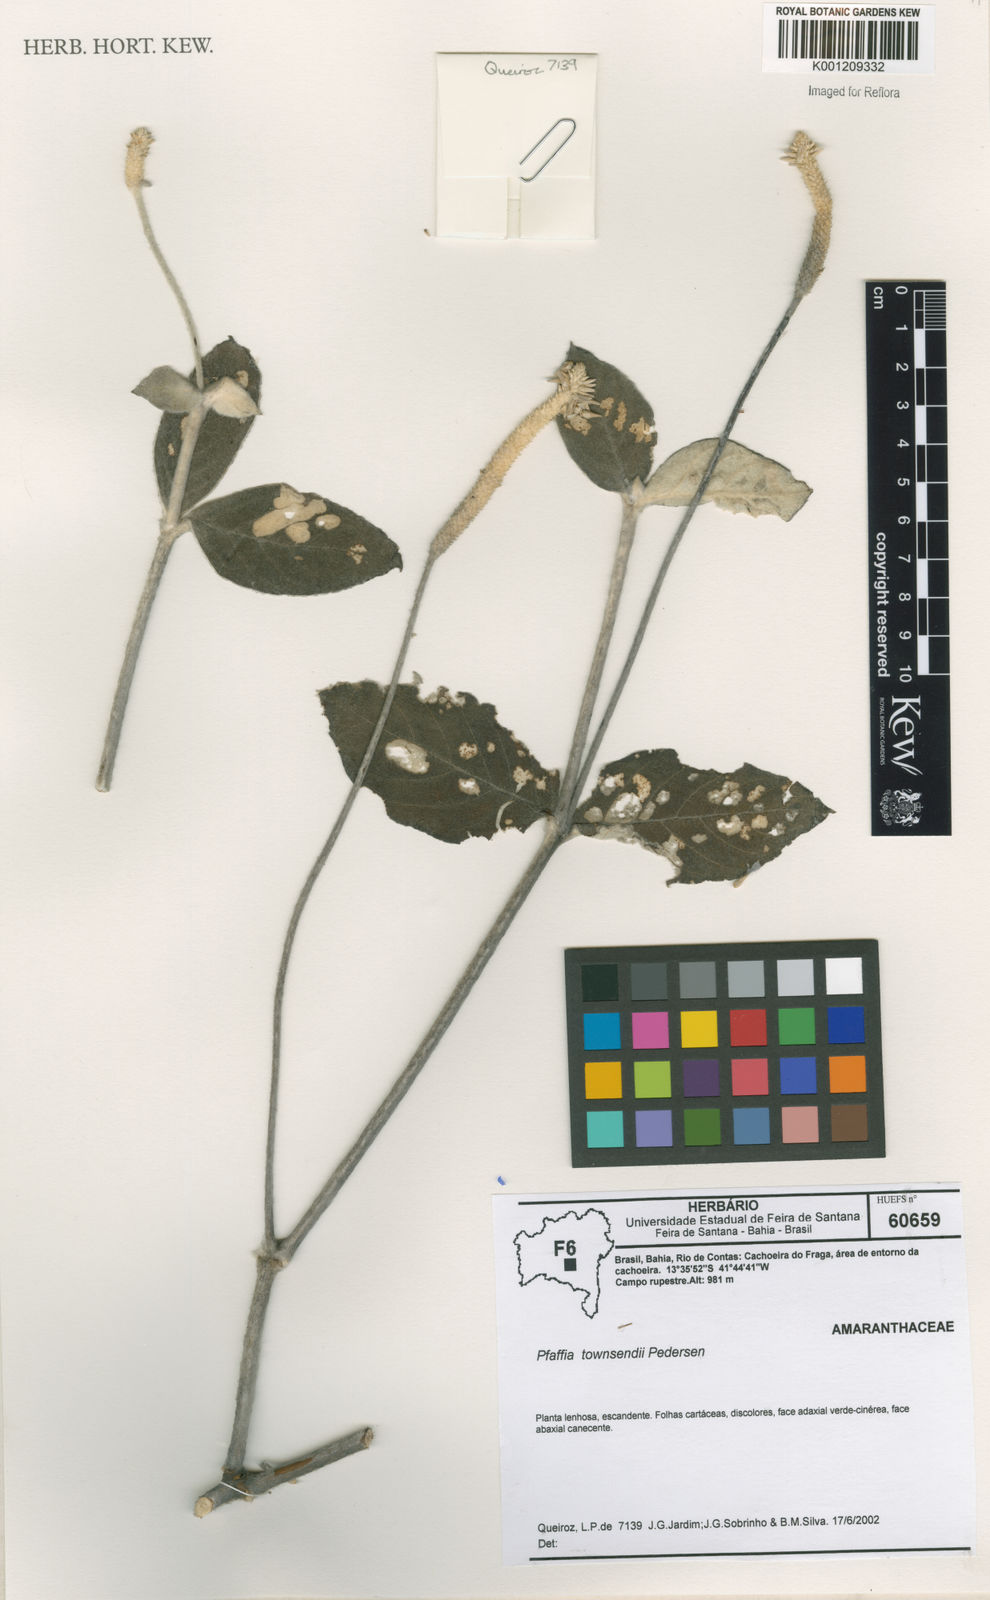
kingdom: Plantae
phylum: Tracheophyta
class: Magnoliopsida
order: Caryophyllales
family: Amaranthaceae
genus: Pfaffia
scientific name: Pfaffia townsendii
